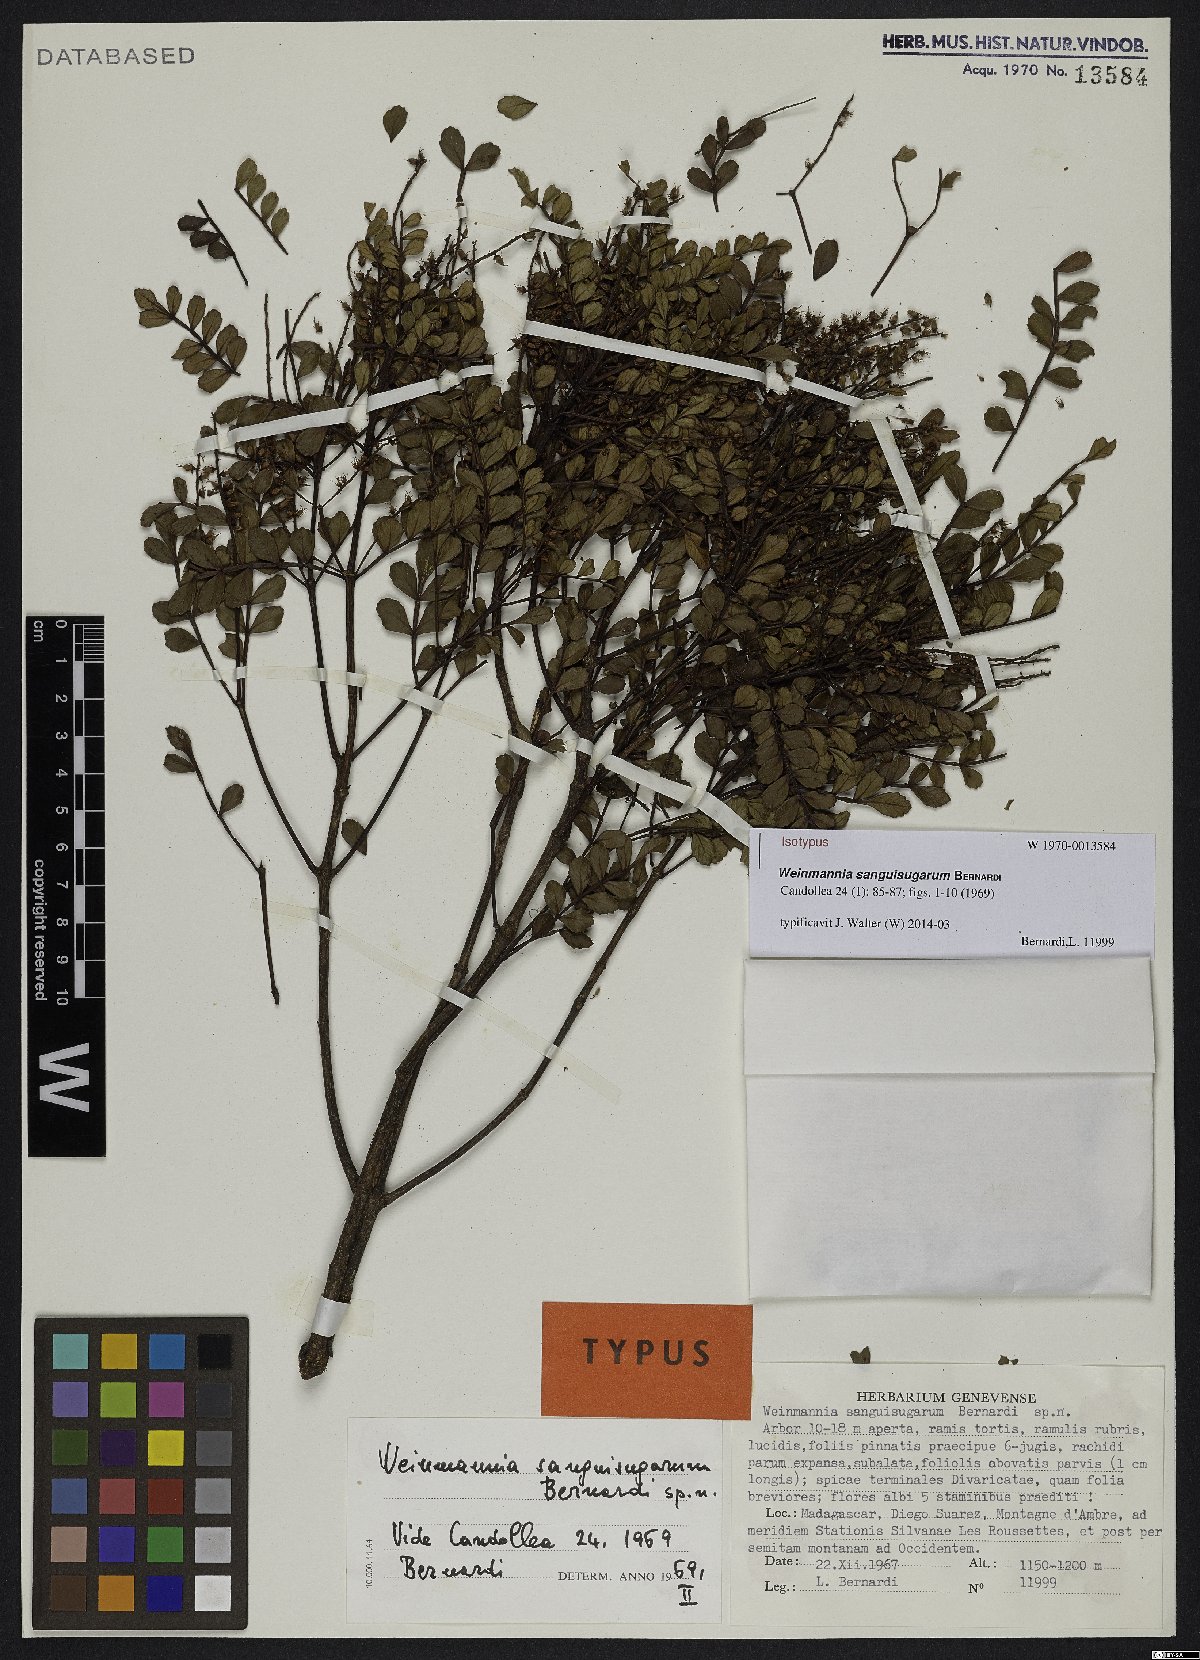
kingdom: Plantae
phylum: Tracheophyta
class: Magnoliopsida
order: Oxalidales
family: Cunoniaceae
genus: Pterophylla
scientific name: Pterophylla sanguisugarum
